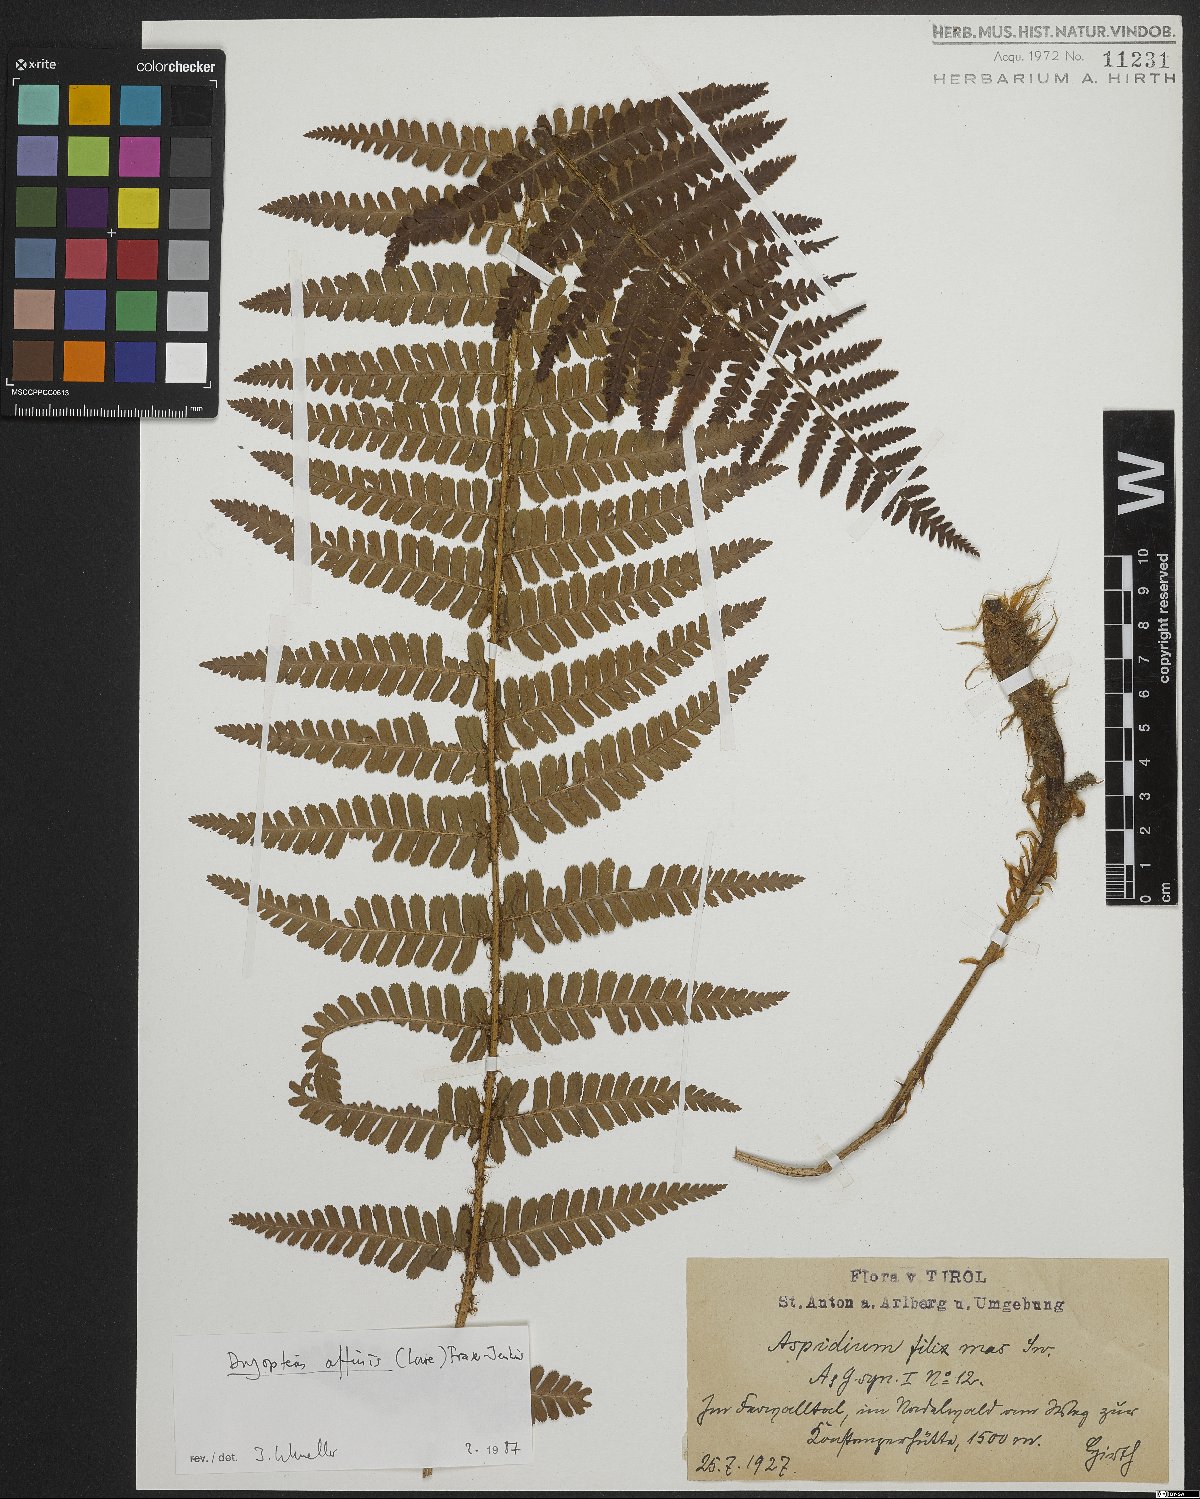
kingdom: Plantae
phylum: Tracheophyta
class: Polypodiopsida
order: Polypodiales
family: Dryopteridaceae
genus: Dryopteris
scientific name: Dryopteris cambrensis
